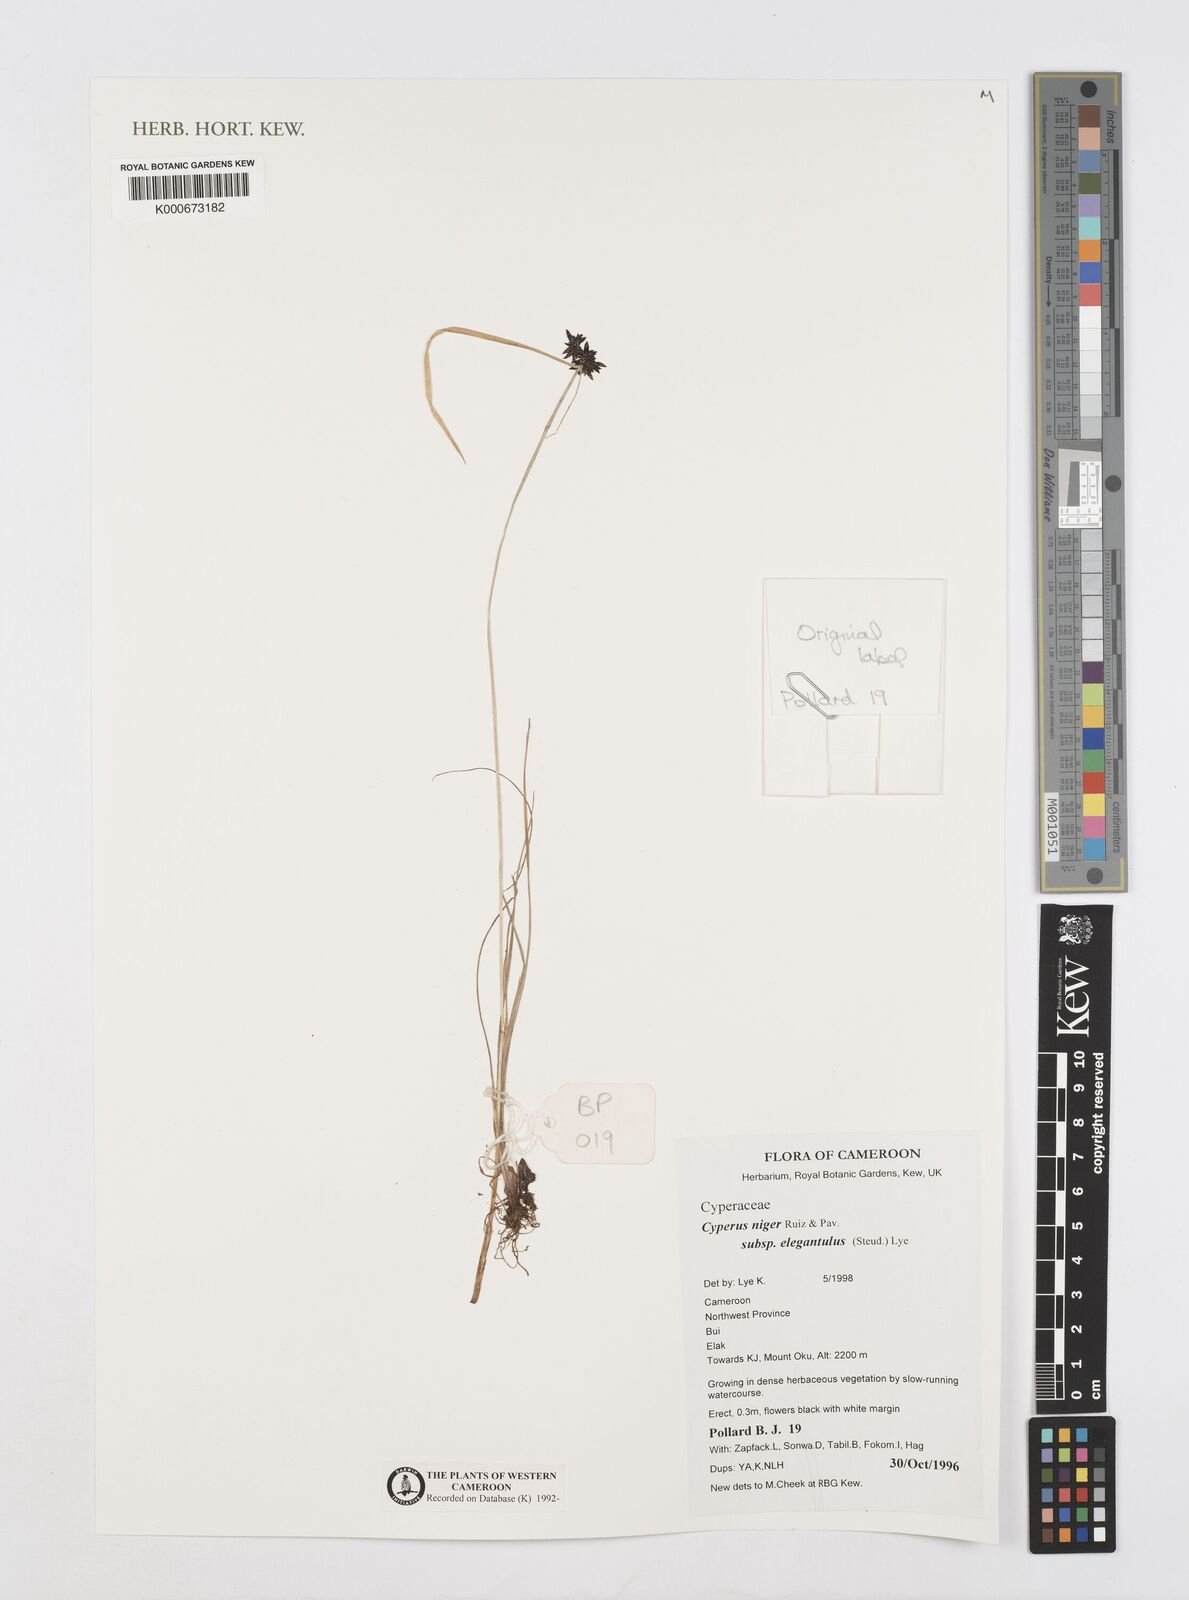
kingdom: Plantae
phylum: Tracheophyta
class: Liliopsida
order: Poales
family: Cyperaceae
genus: Cyperus
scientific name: Cyperus elegantulus
